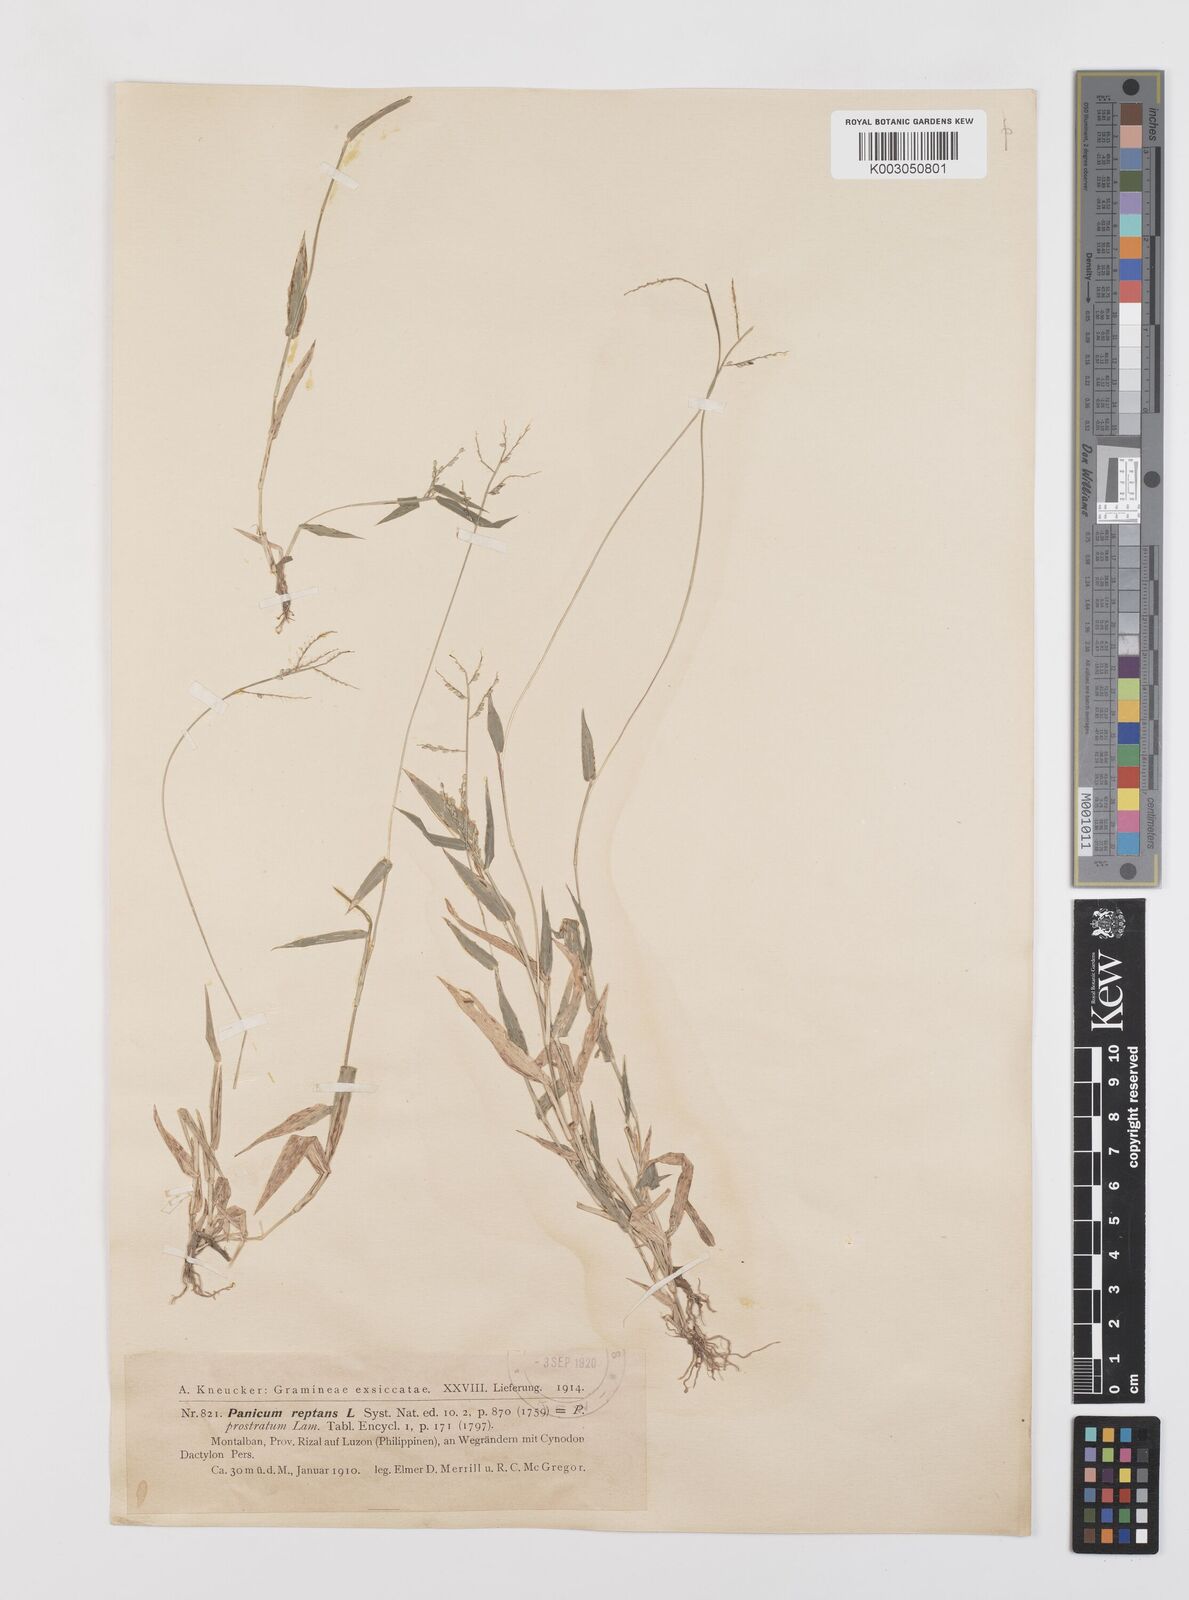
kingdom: Plantae
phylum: Tracheophyta
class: Liliopsida
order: Poales
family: Poaceae
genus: Urochloa
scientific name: Urochloa reptans
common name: Sprawling signalgrass
